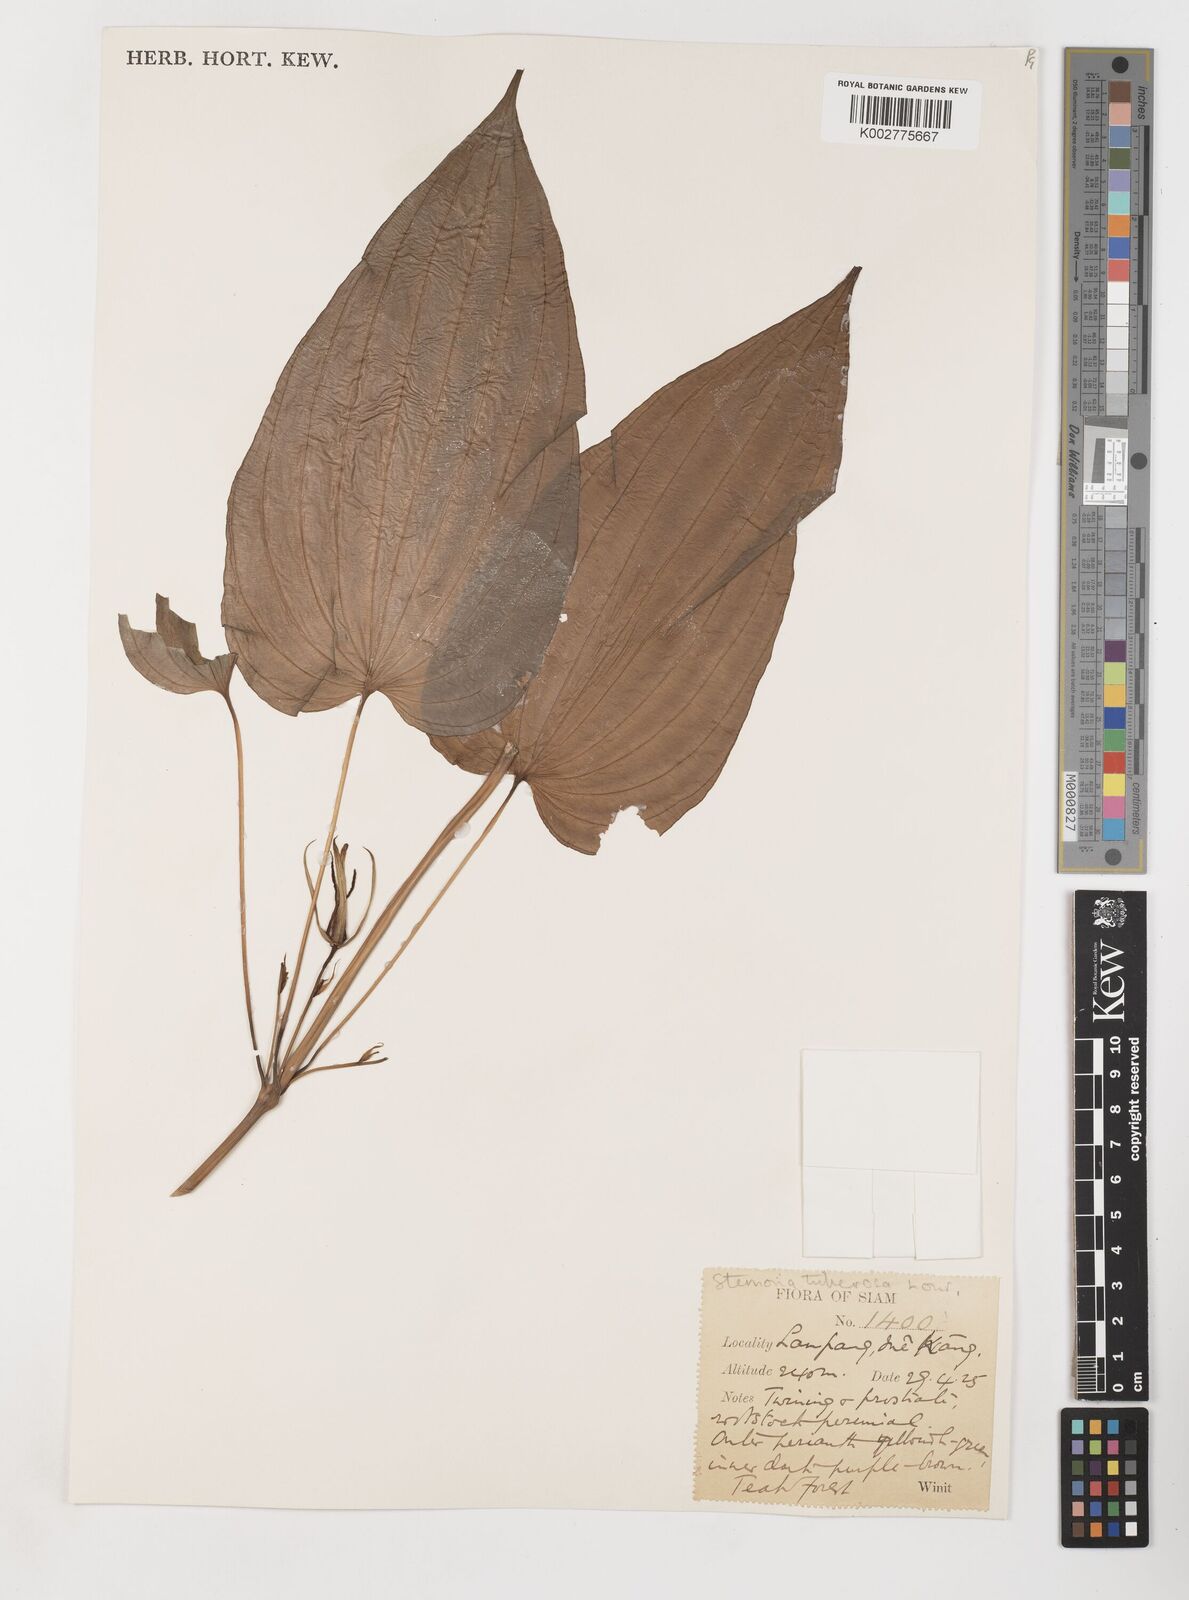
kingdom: Plantae
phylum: Tracheophyta
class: Liliopsida
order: Pandanales
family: Stemonaceae
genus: Stemona
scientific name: Stemona tuberosa
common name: Stemona
